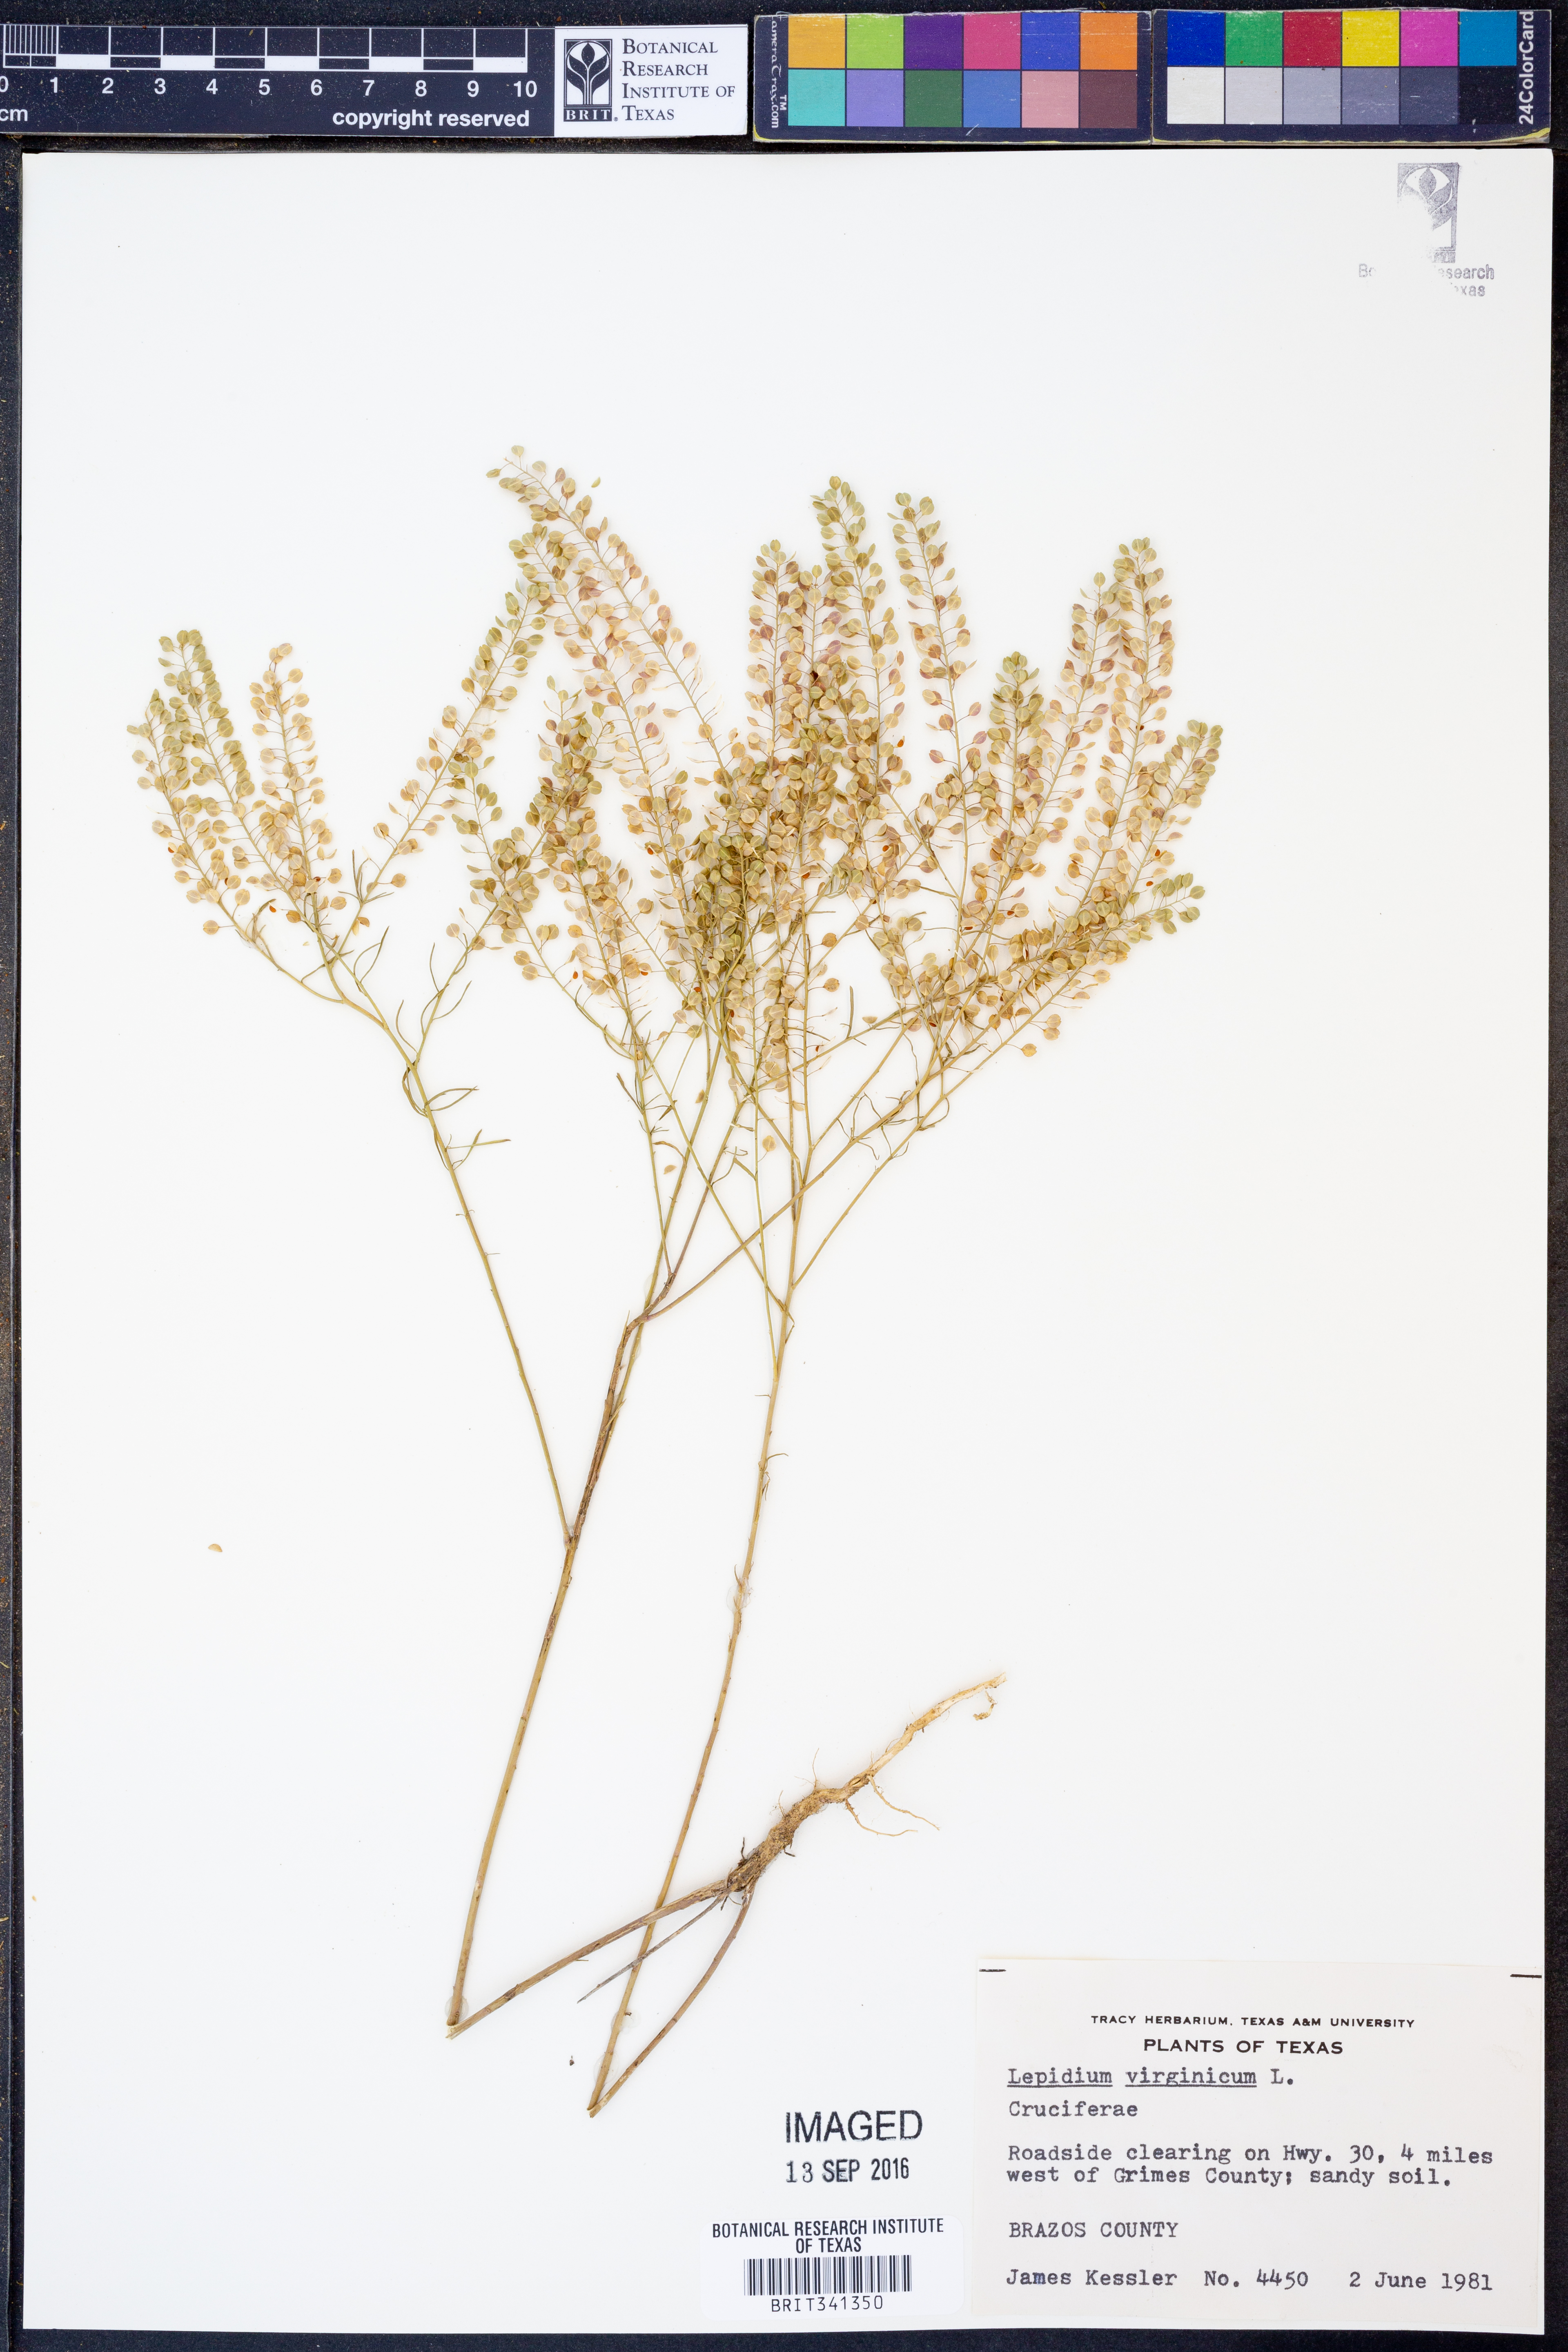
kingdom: Plantae
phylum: Tracheophyta
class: Magnoliopsida
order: Brassicales
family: Brassicaceae
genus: Lepidium
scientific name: Lepidium virginicum
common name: Least pepperwort
